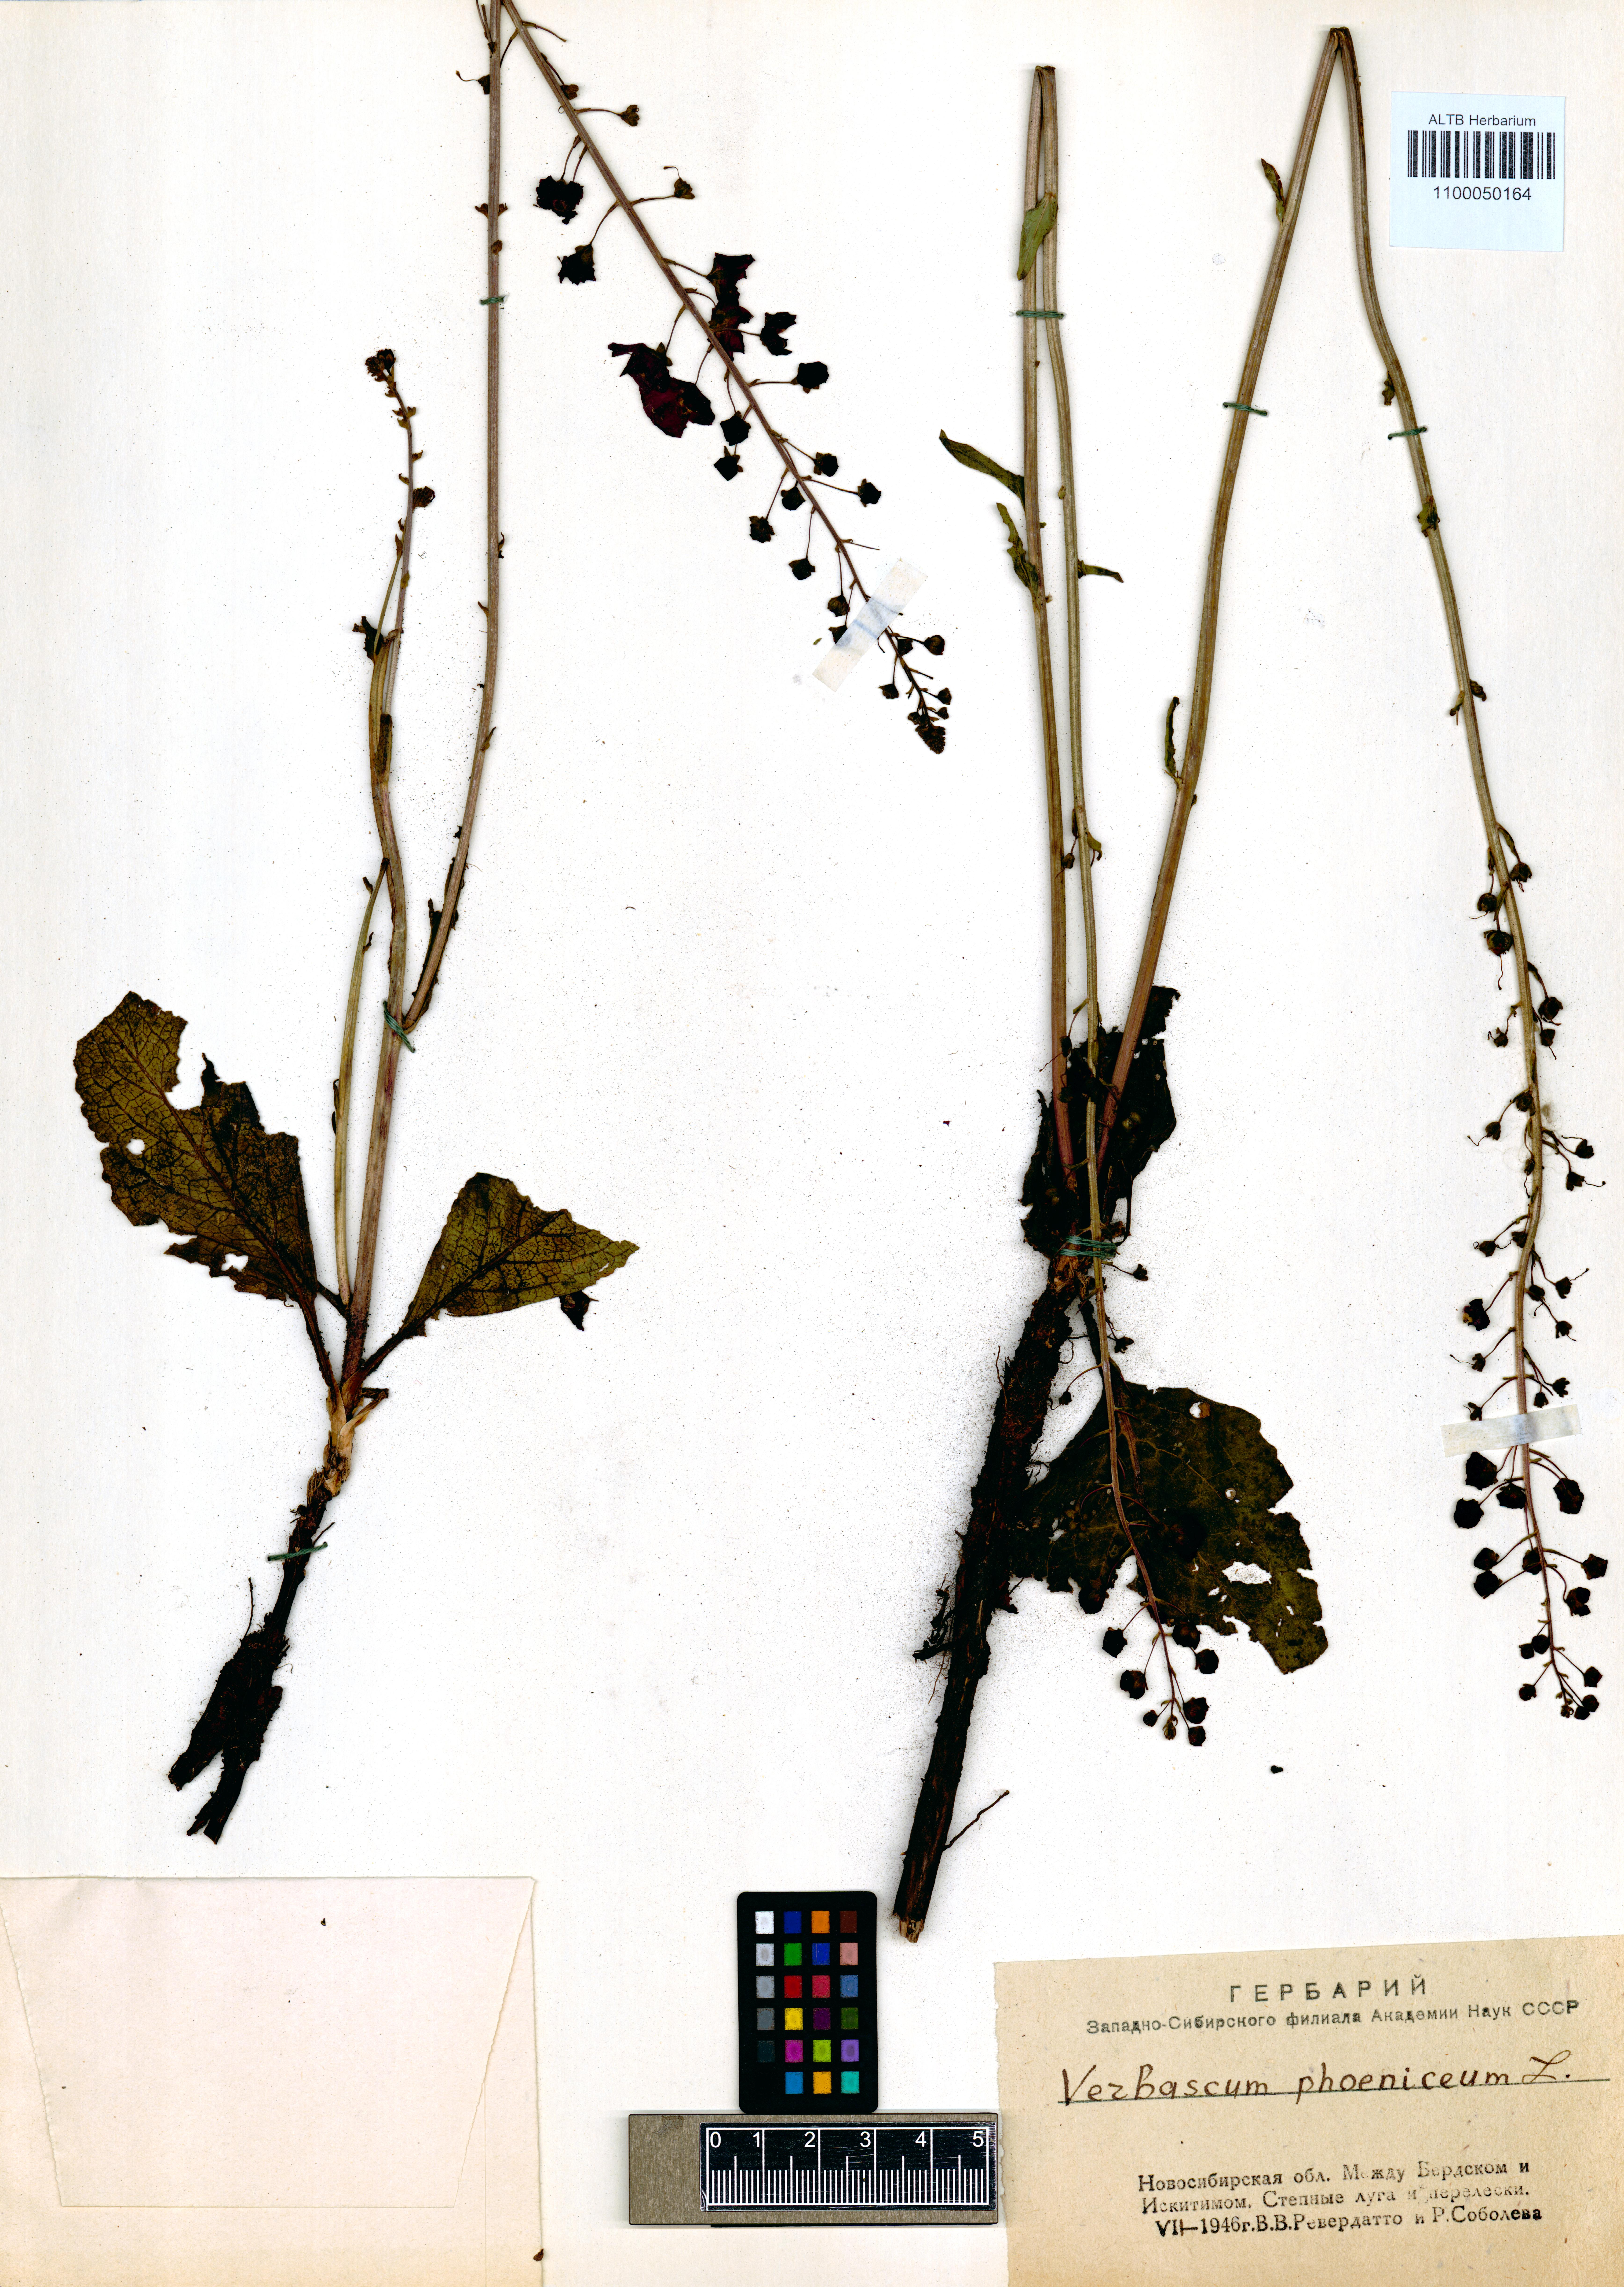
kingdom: Plantae
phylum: Tracheophyta
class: Magnoliopsida
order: Lamiales
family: Scrophulariaceae
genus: Verbascum
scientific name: Verbascum phoeniceum
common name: Purple mullein
